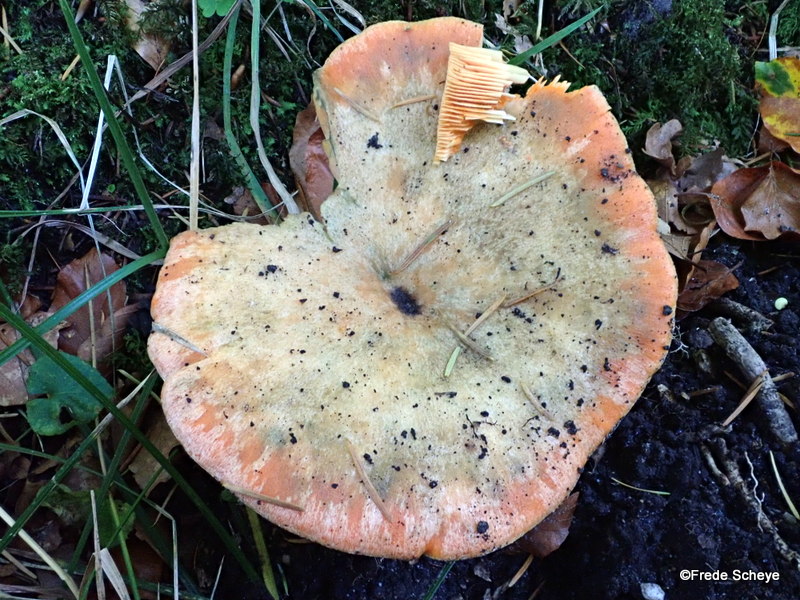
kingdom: Fungi
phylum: Basidiomycota
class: Agaricomycetes
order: Russulales
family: Russulaceae
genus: Lactarius
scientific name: Lactarius deterrimus
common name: gran-mælkehat
